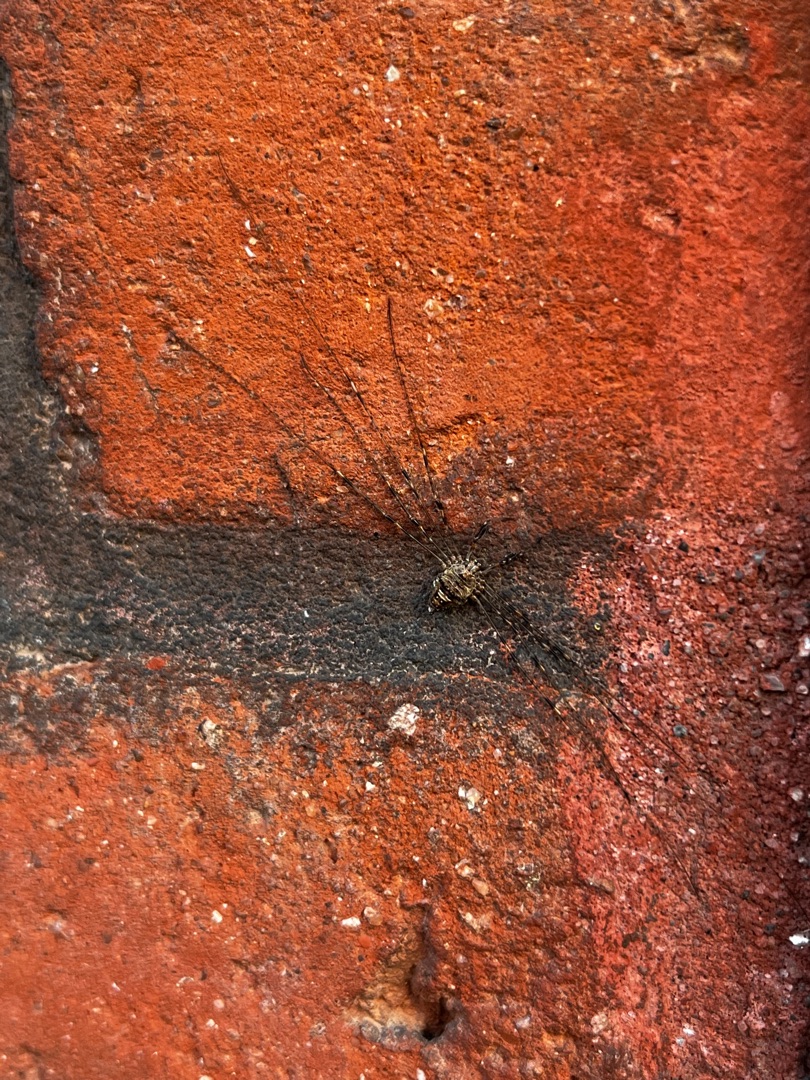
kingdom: Animalia
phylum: Arthropoda
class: Arachnida
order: Opiliones
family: Phalangiidae
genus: Dicranopalpus
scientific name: Dicranopalpus ramosus
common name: Gaffelmejer
